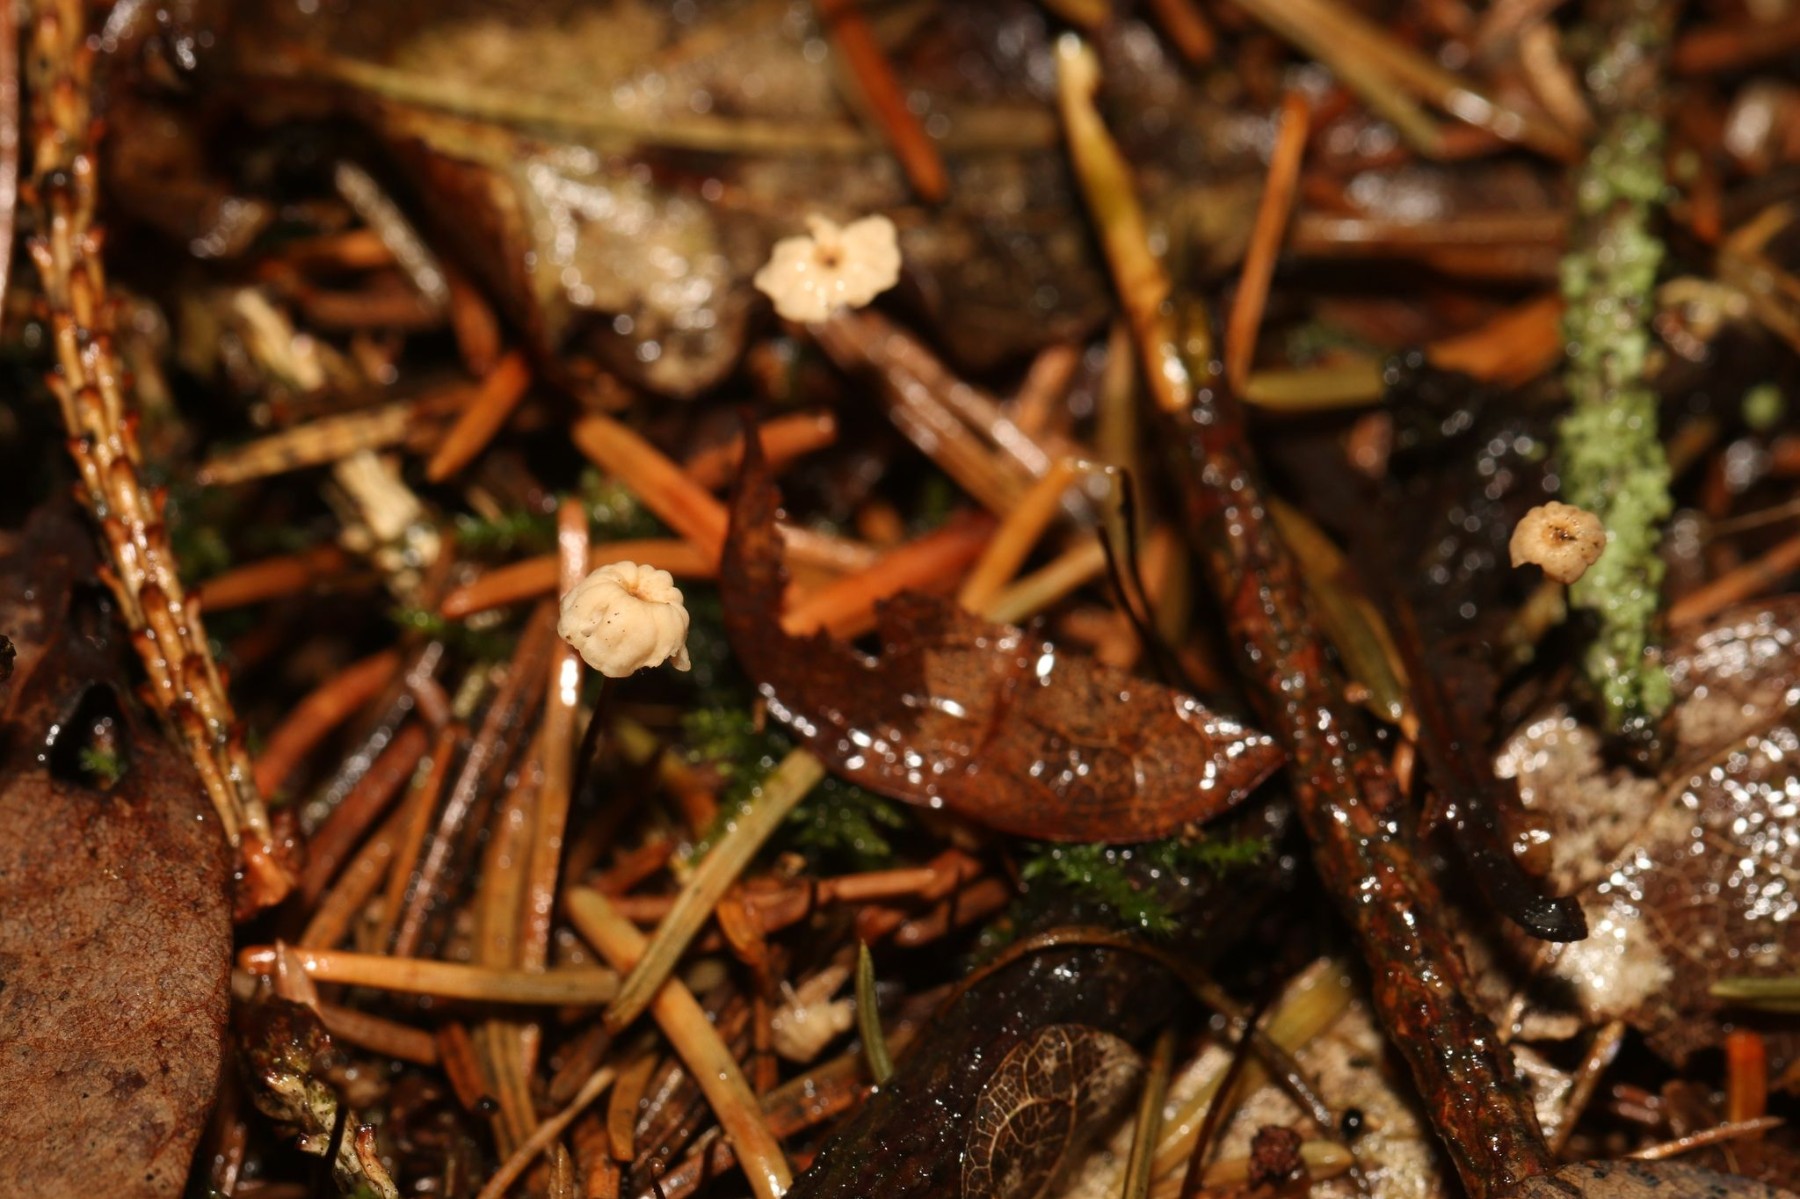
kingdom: Fungi
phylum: Basidiomycota
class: Agaricomycetes
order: Agaricales
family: Marasmiaceae
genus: Marasmius
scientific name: Marasmius wettsteinii
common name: Wettsteins bruskhat
